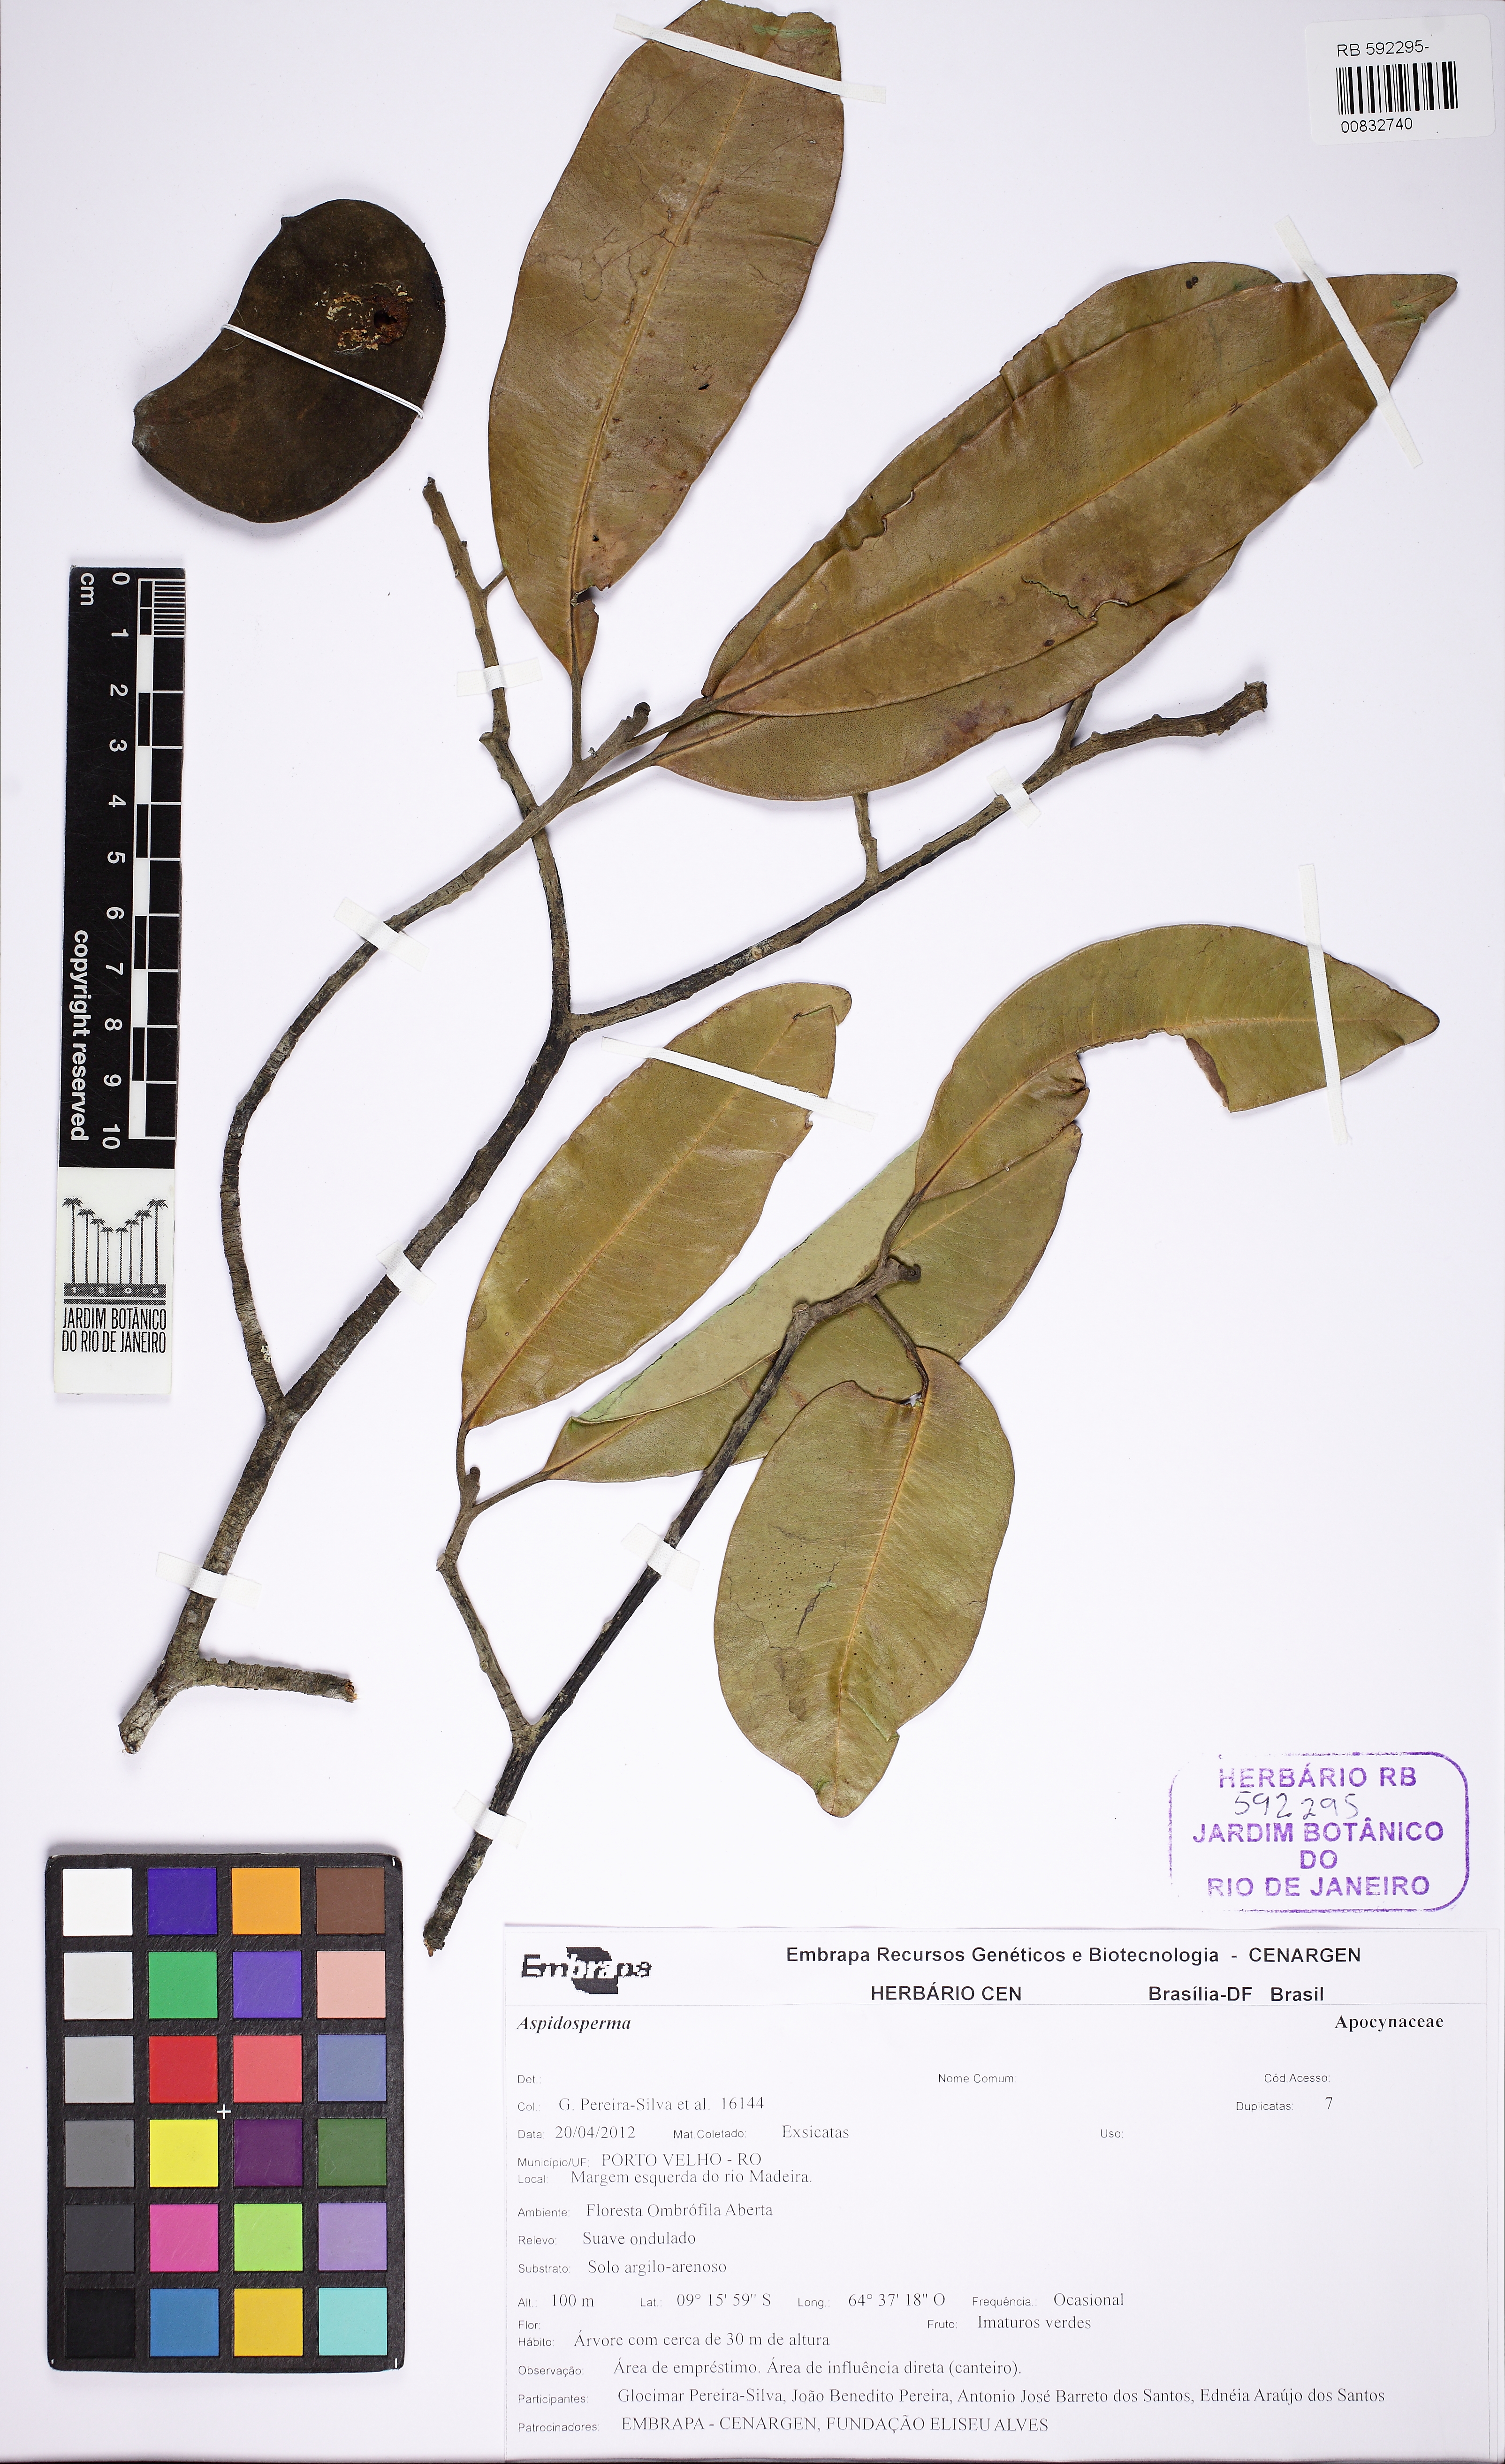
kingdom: Plantae
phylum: Tracheophyta
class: Magnoliopsida
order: Gentianales
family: Apocynaceae
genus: Aspidosperma
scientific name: Aspidosperma huberianum
